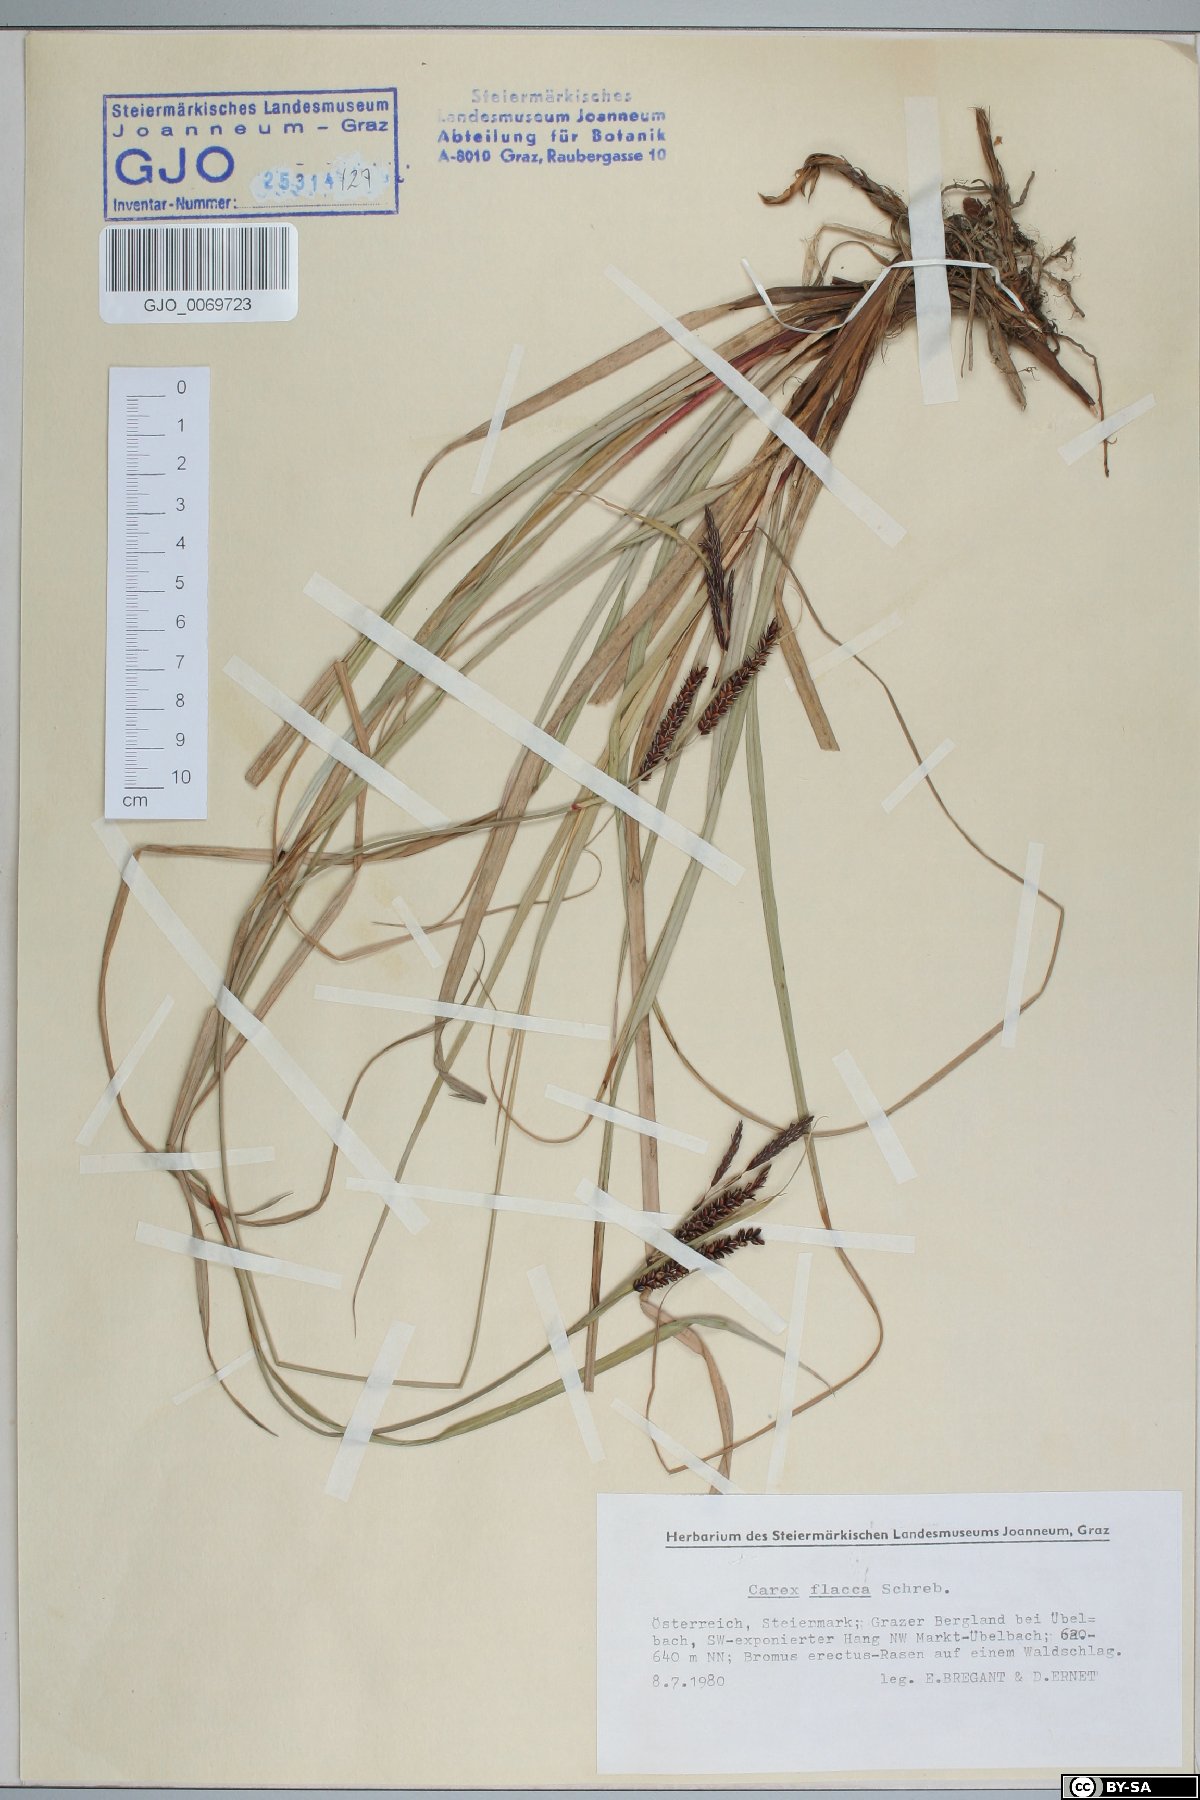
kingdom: Plantae
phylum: Tracheophyta
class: Liliopsida
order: Poales
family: Cyperaceae
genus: Carex
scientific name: Carex flacca
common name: Glaucous sedge
